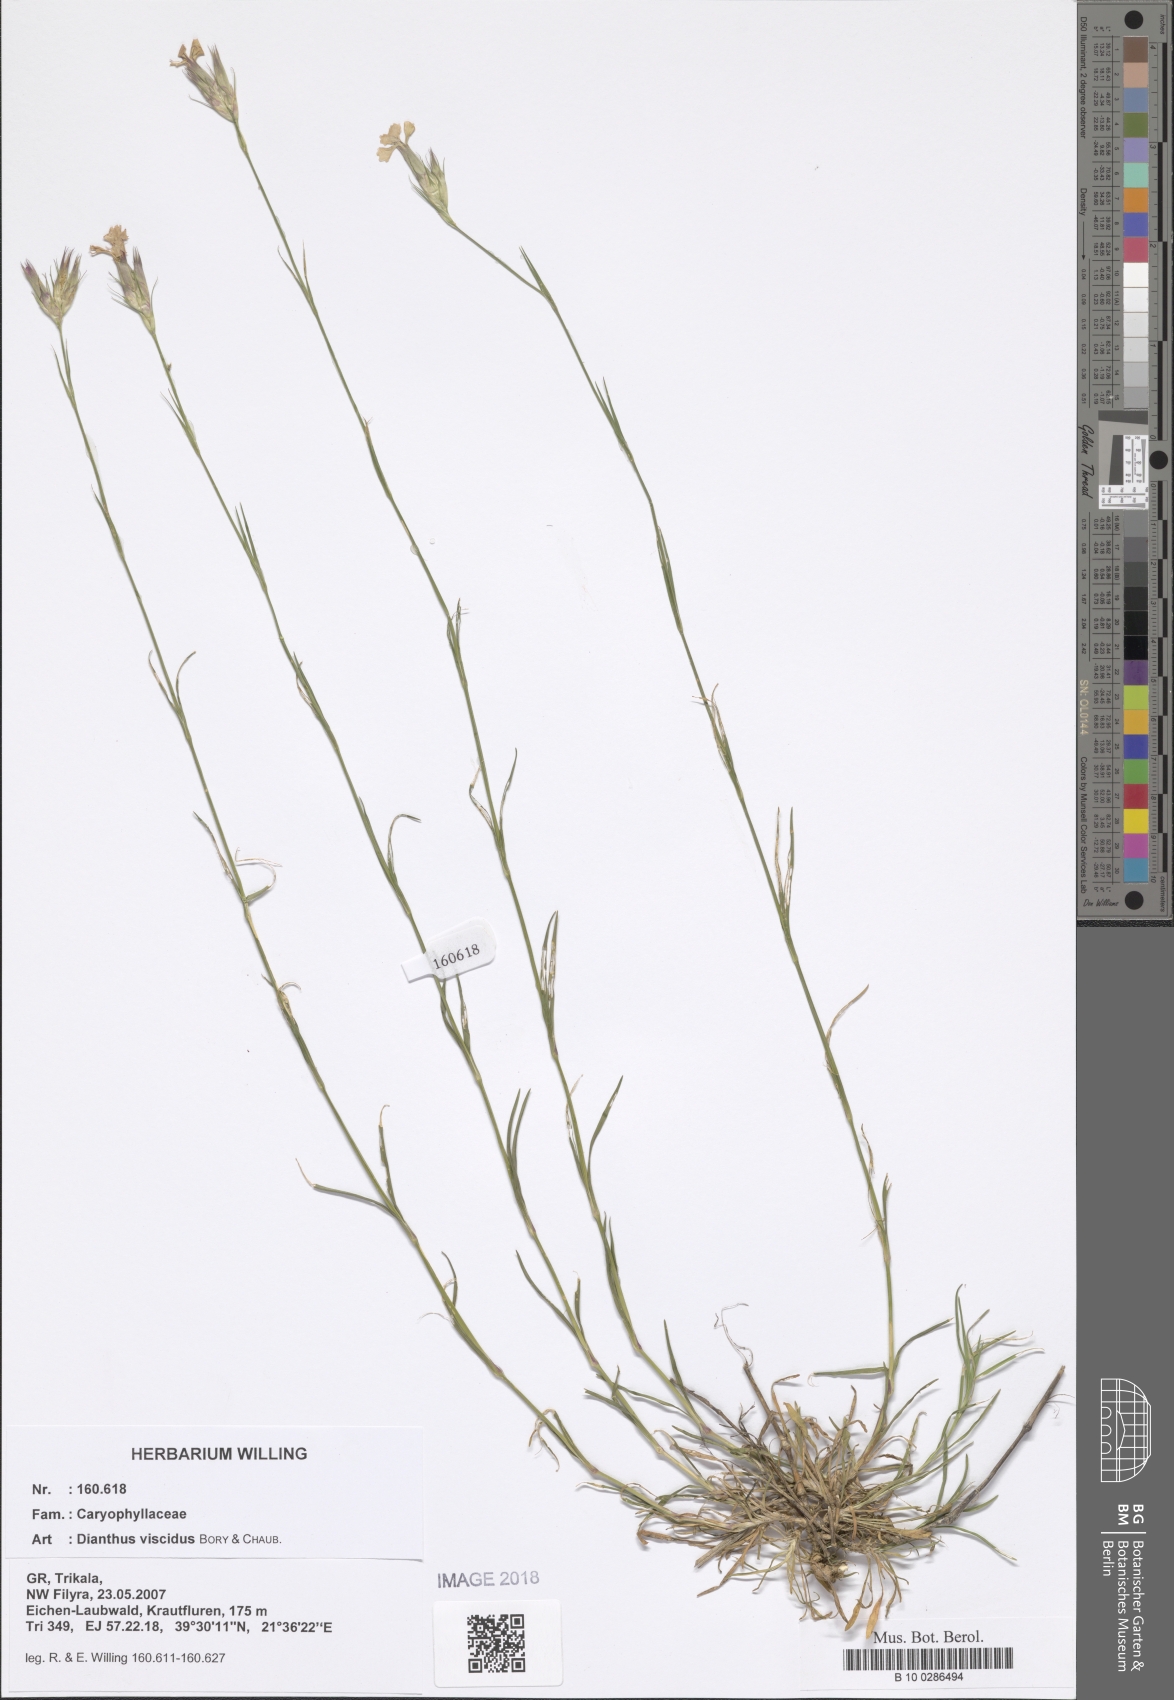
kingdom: Plantae
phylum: Tracheophyta
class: Magnoliopsida
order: Caryophyllales
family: Caryophyllaceae
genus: Dianthus
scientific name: Dianthus viscidus
